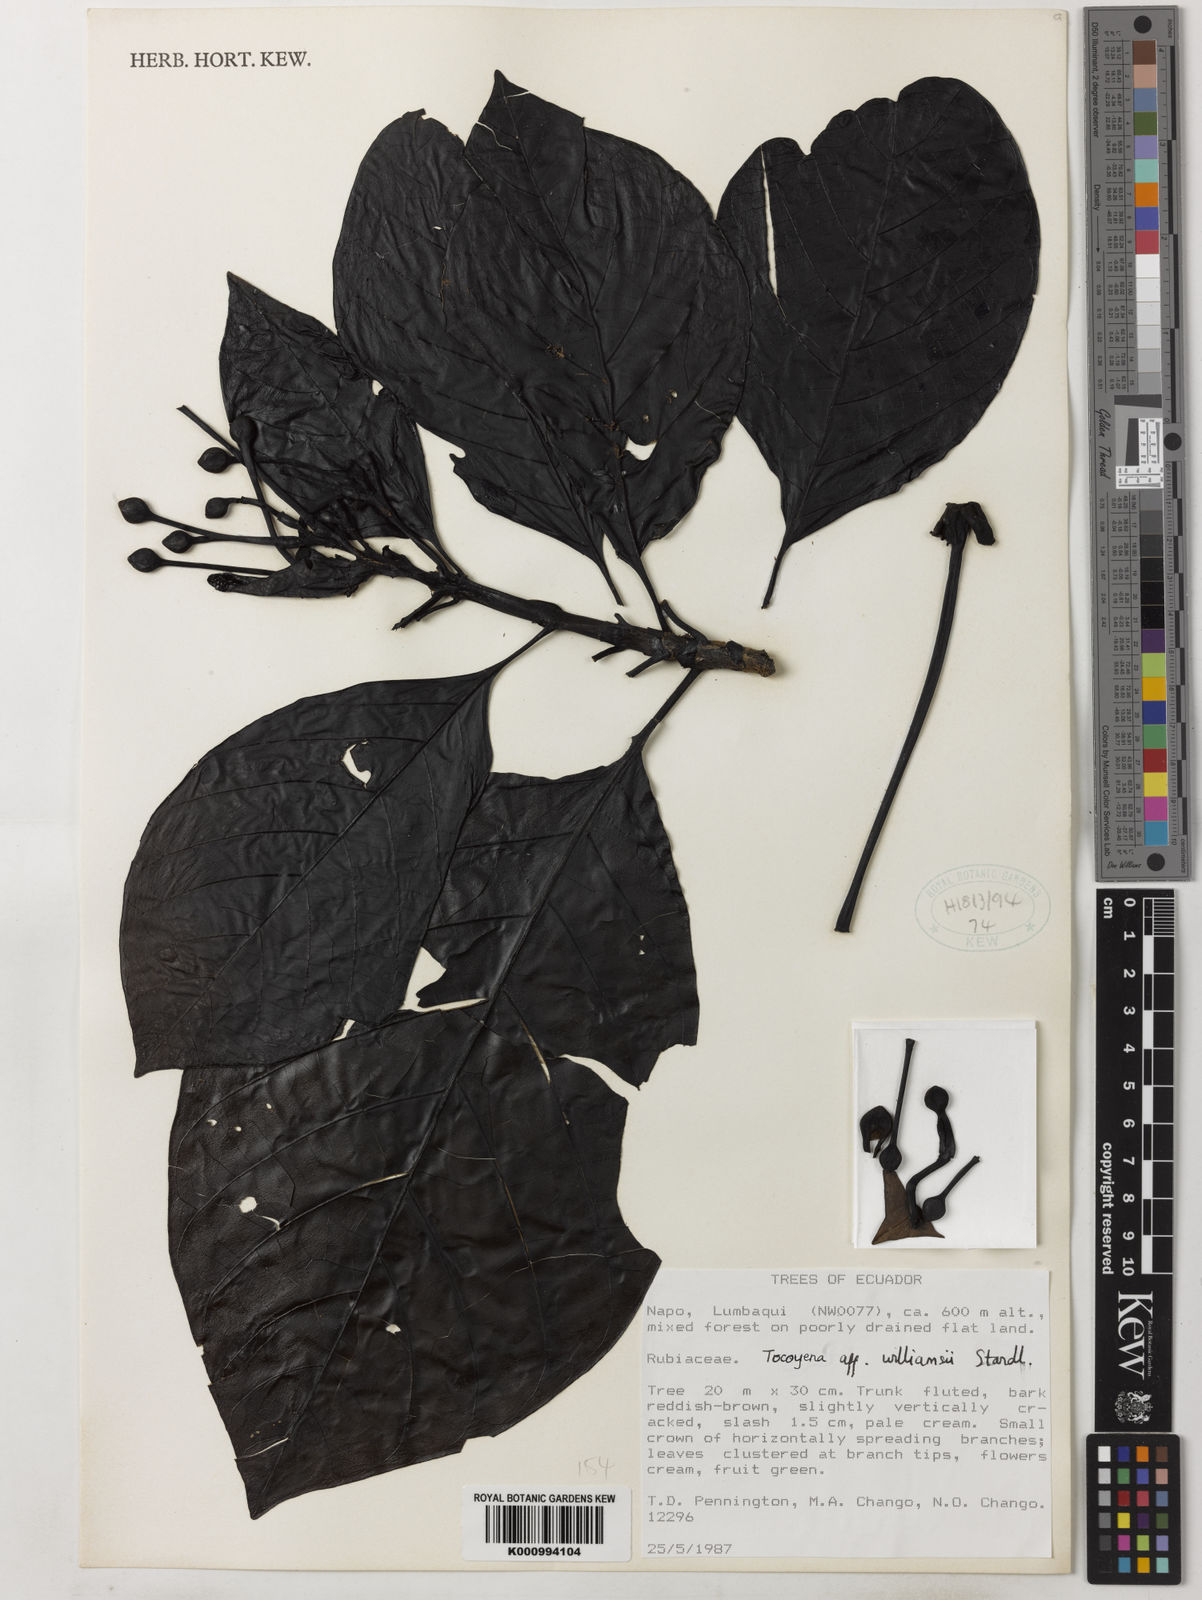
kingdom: Plantae
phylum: Tracheophyta
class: Magnoliopsida
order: Gentianales
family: Rubiaceae
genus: Tocoyena
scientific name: Tocoyena pittieri
